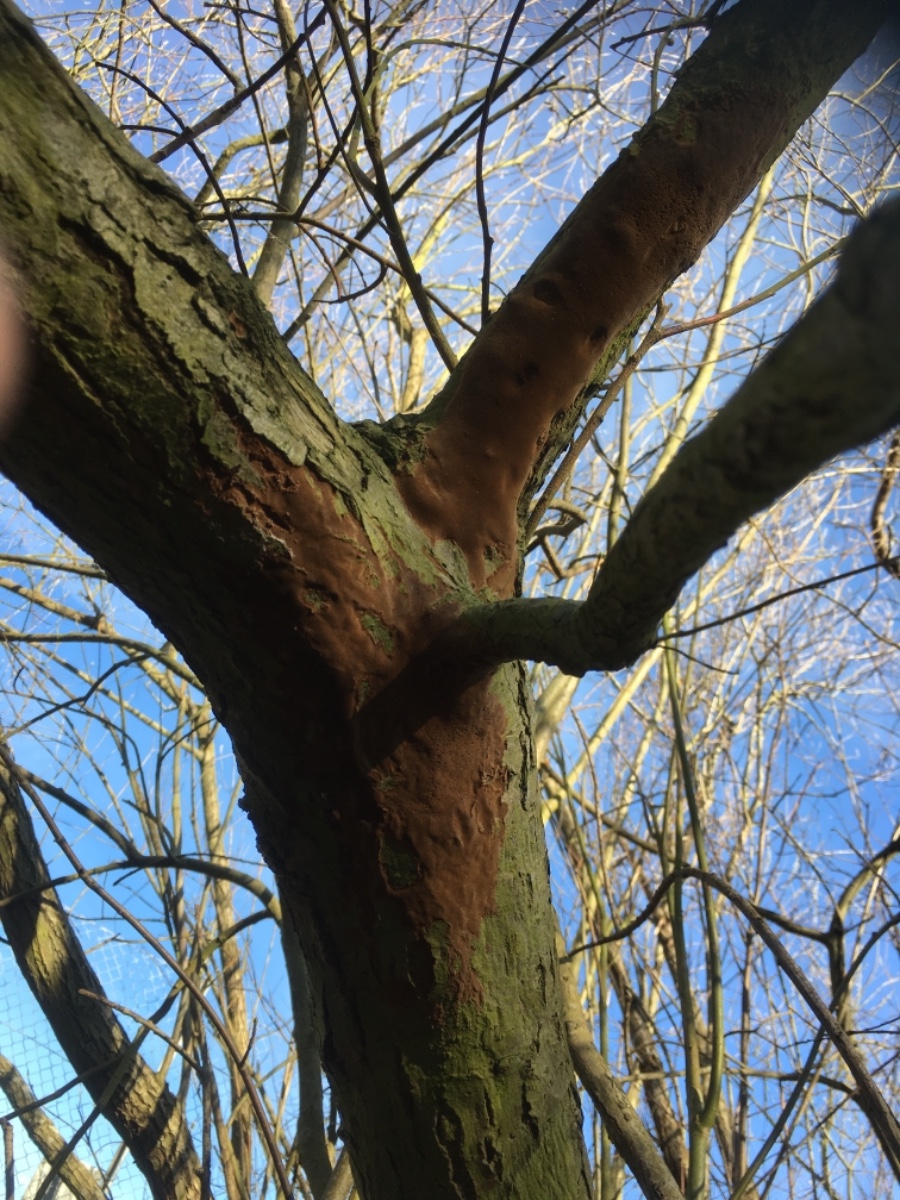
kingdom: Fungi
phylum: Basidiomycota
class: Agaricomycetes
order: Hymenochaetales
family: Hymenochaetaceae
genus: Fuscoporia
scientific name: Fuscoporia
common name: Ildporesvamp
